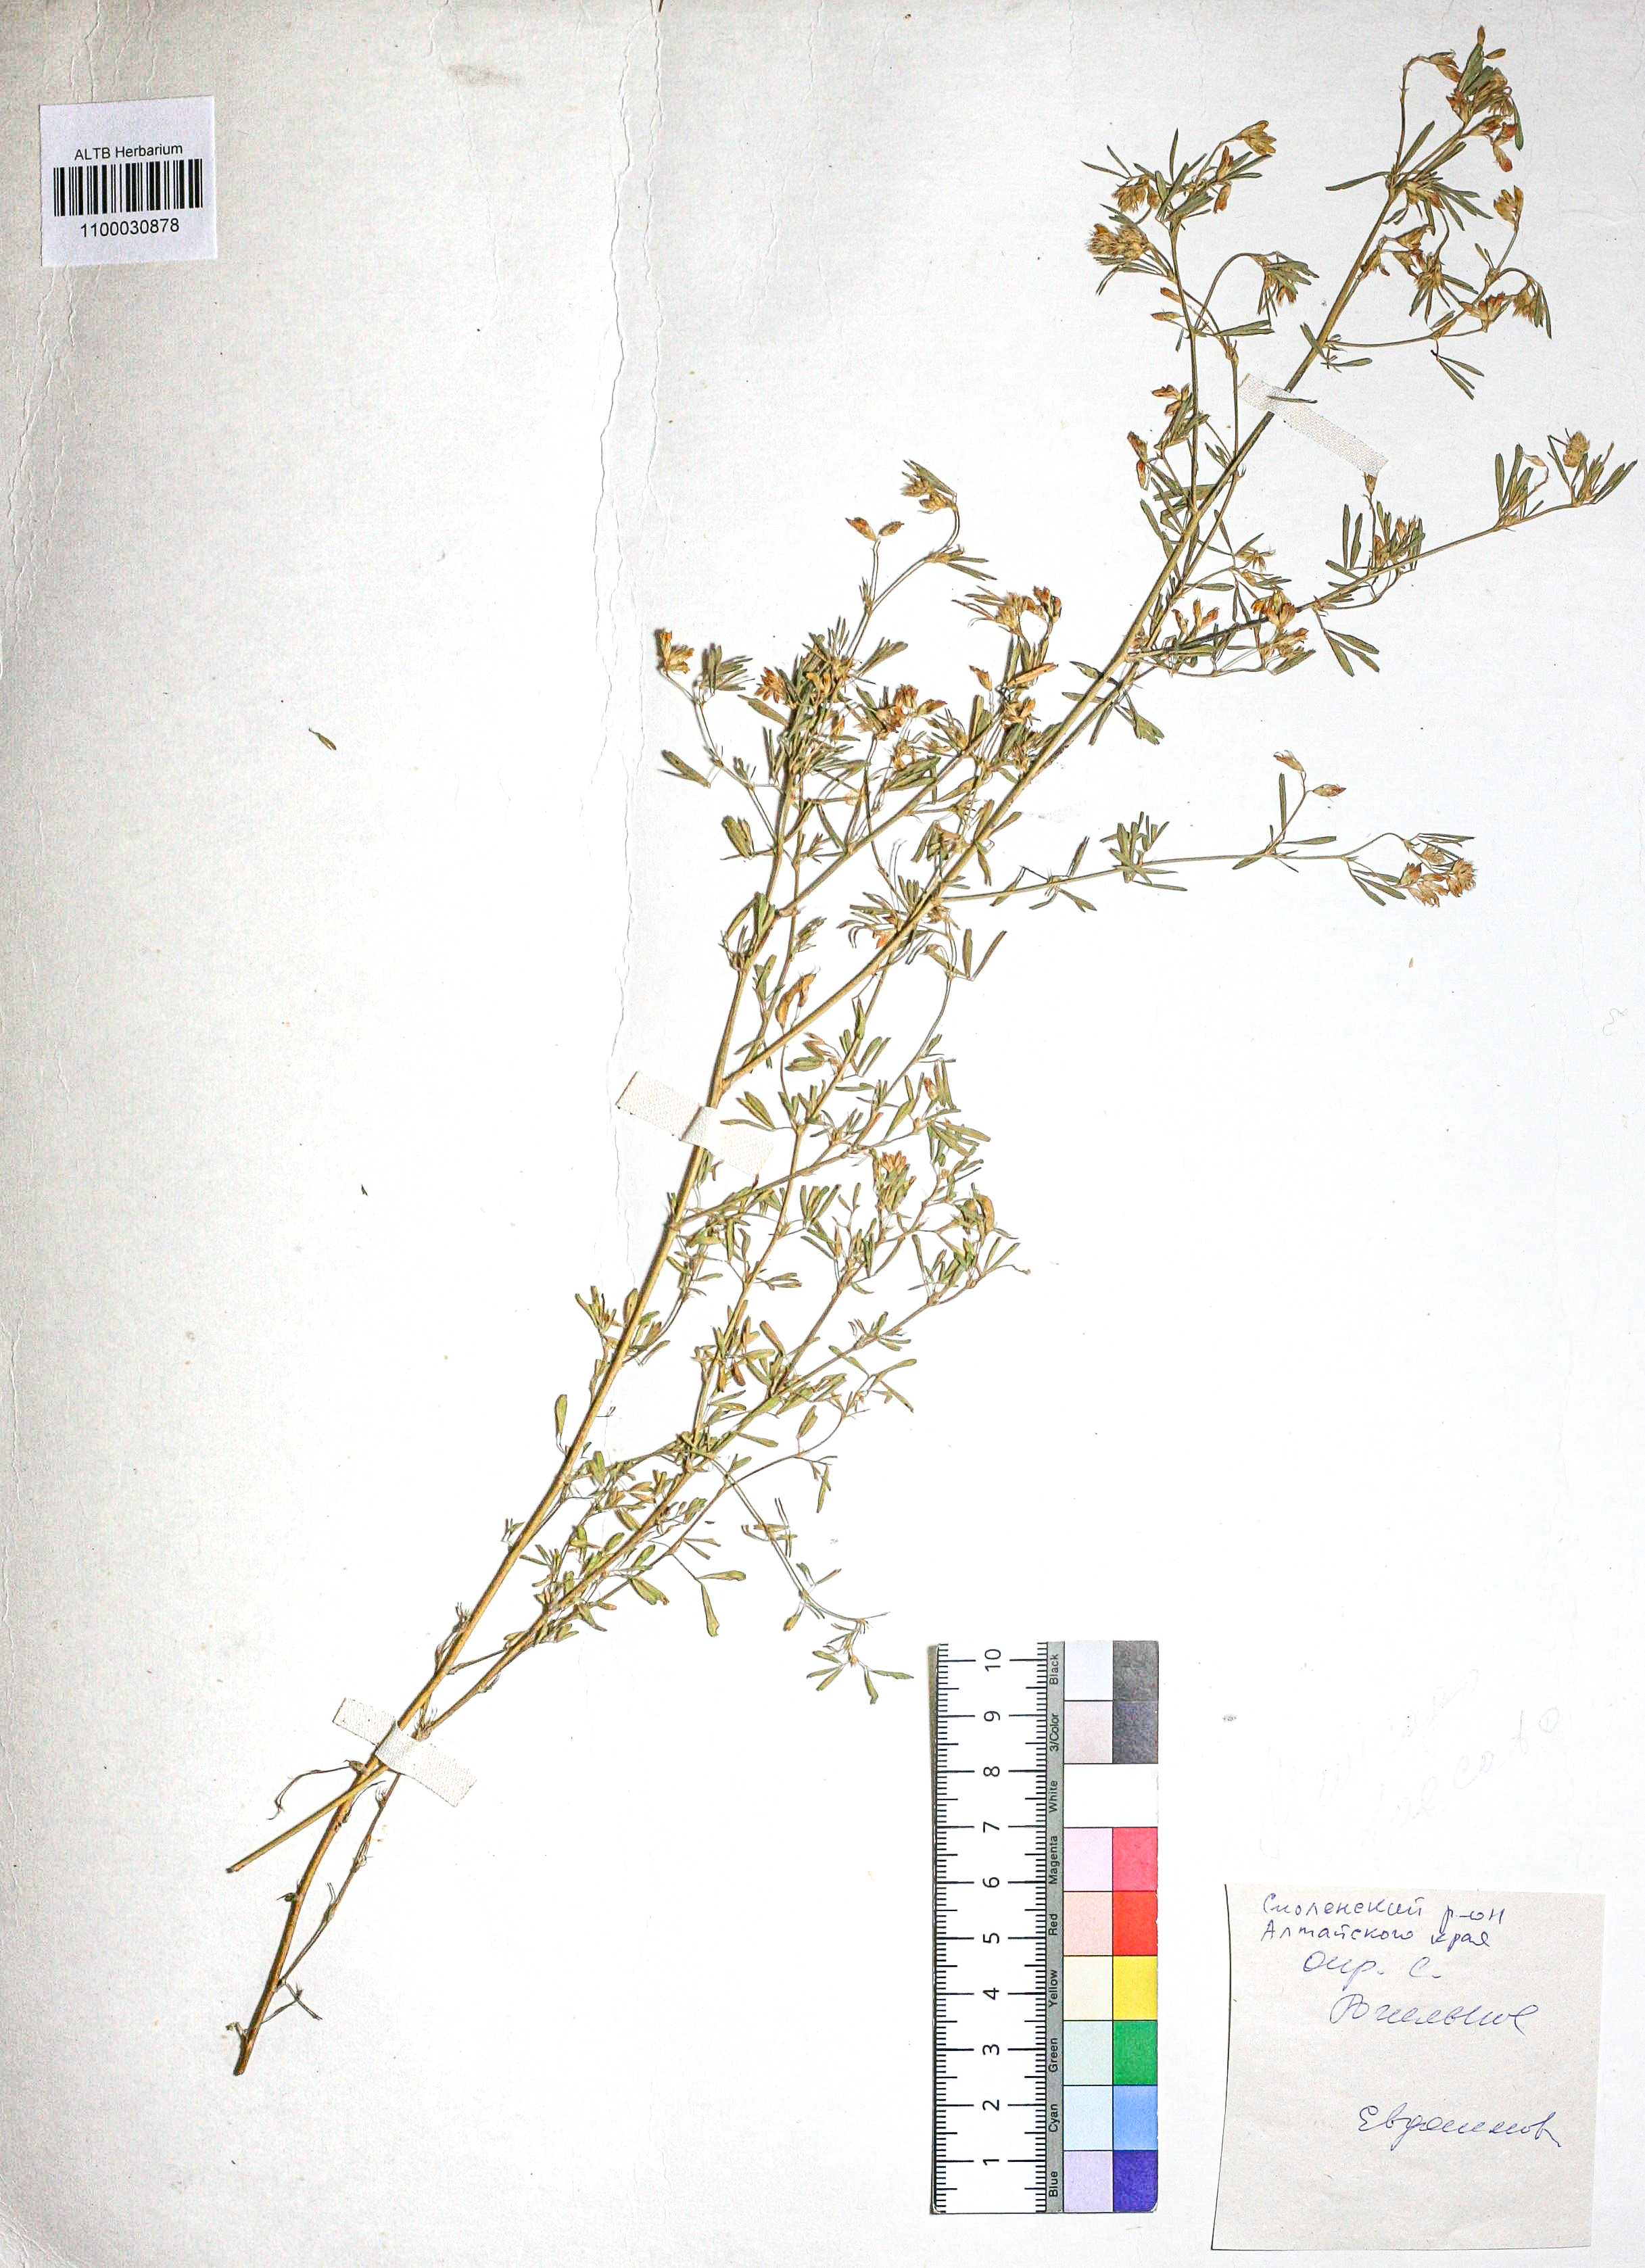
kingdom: Plantae
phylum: Tracheophyta
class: Magnoliopsida
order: Fabales
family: Fabaceae
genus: Medicago
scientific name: Medicago falcata
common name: Sickle medick
